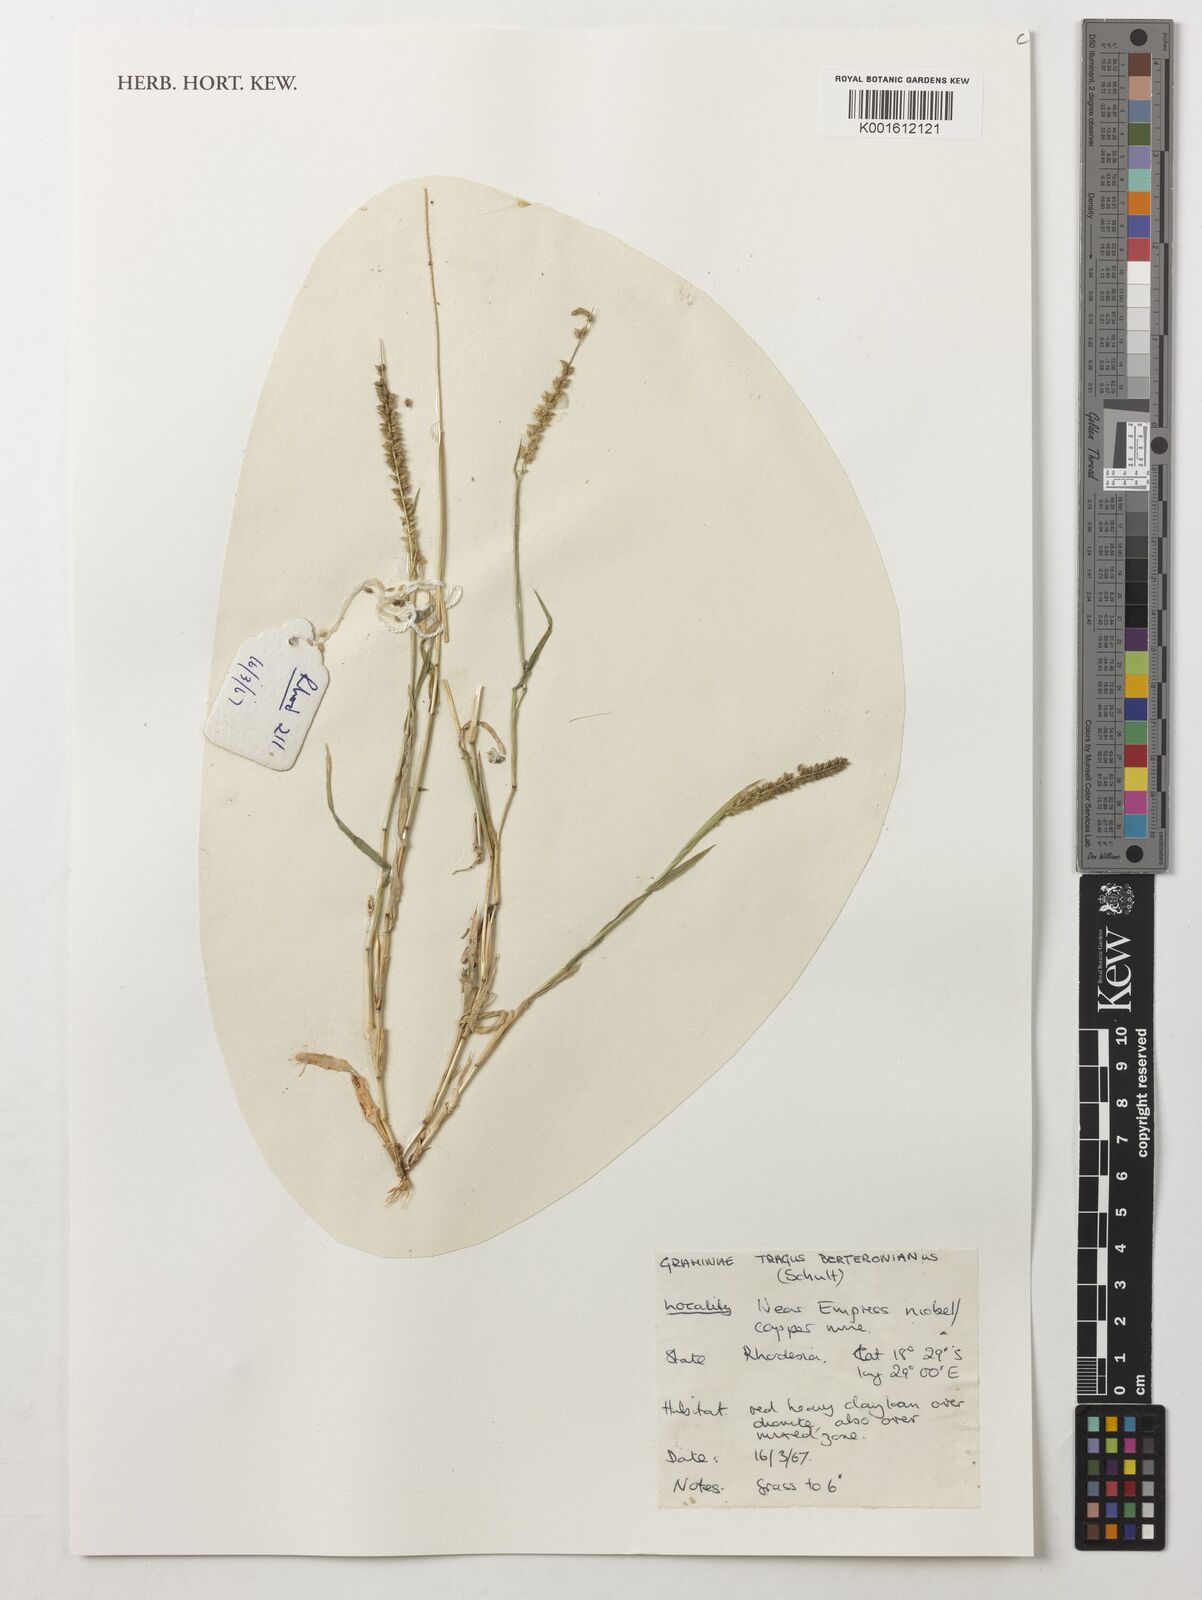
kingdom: Plantae
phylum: Tracheophyta
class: Liliopsida
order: Poales
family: Poaceae
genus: Tragus
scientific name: Tragus berteronianus
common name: African bur-grass
